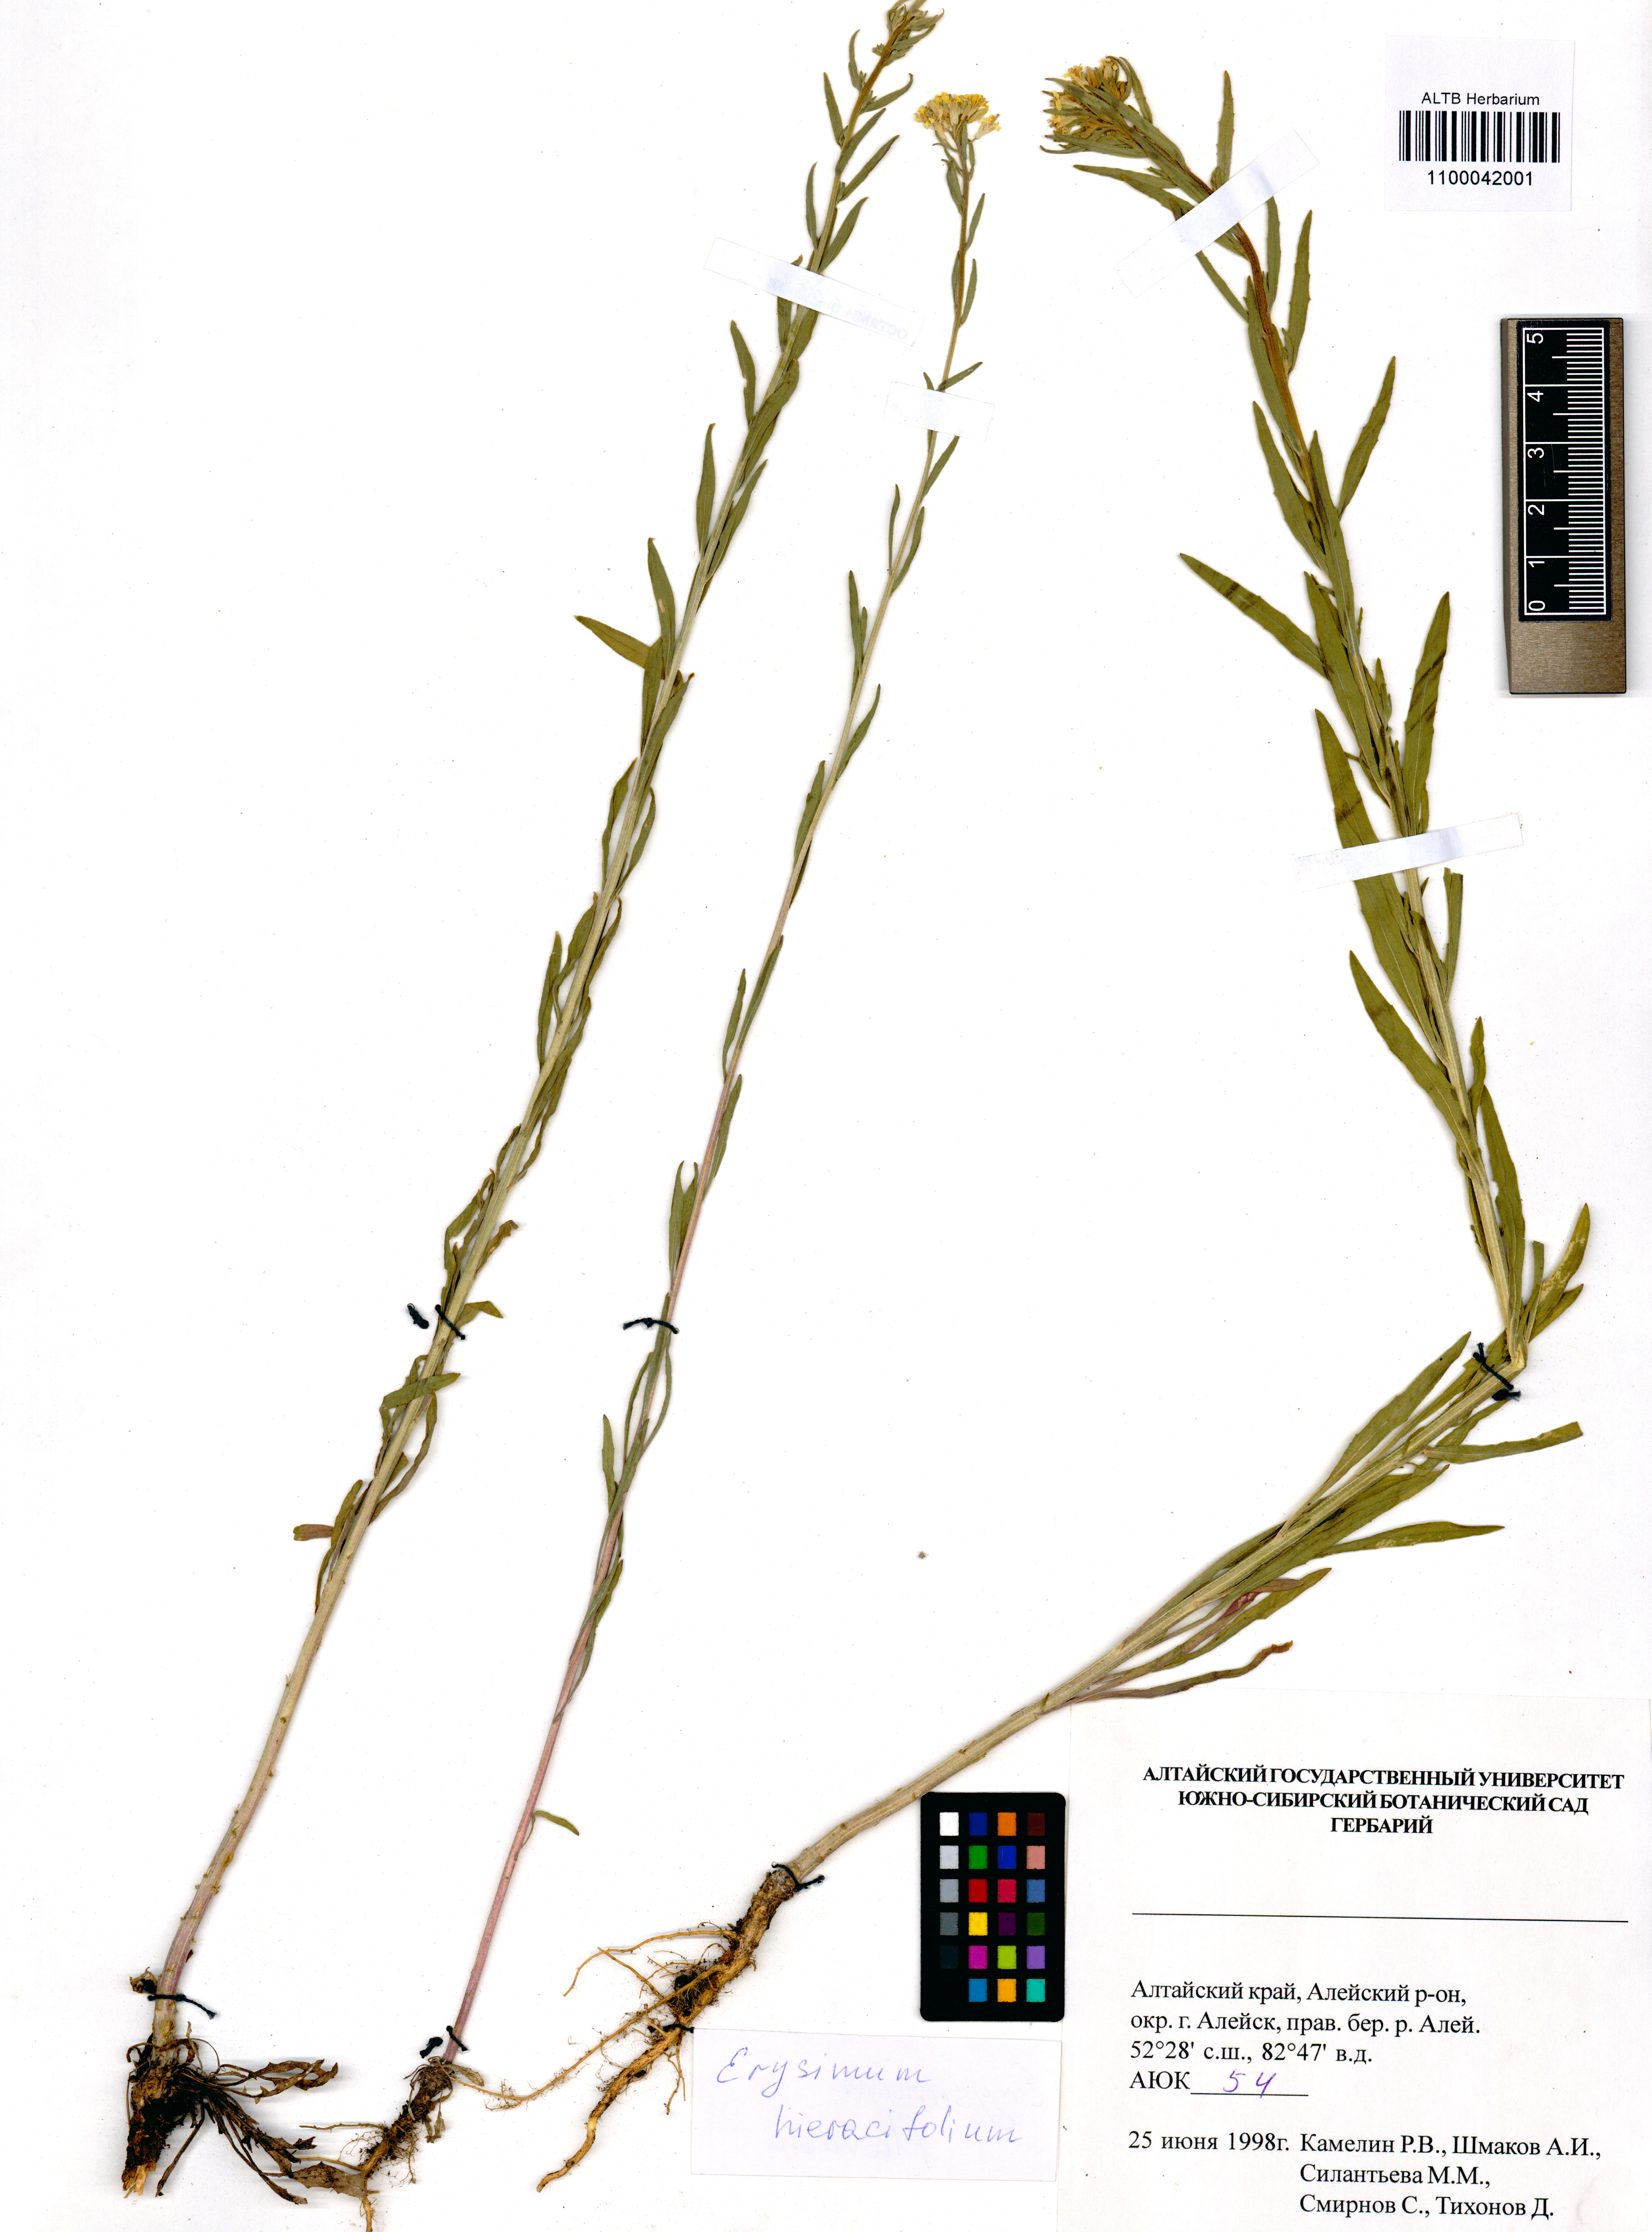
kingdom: Plantae
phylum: Tracheophyta
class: Magnoliopsida
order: Brassicales
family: Brassicaceae
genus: Erysimum
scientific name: Erysimum hieraciifolium
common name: European wallflower
